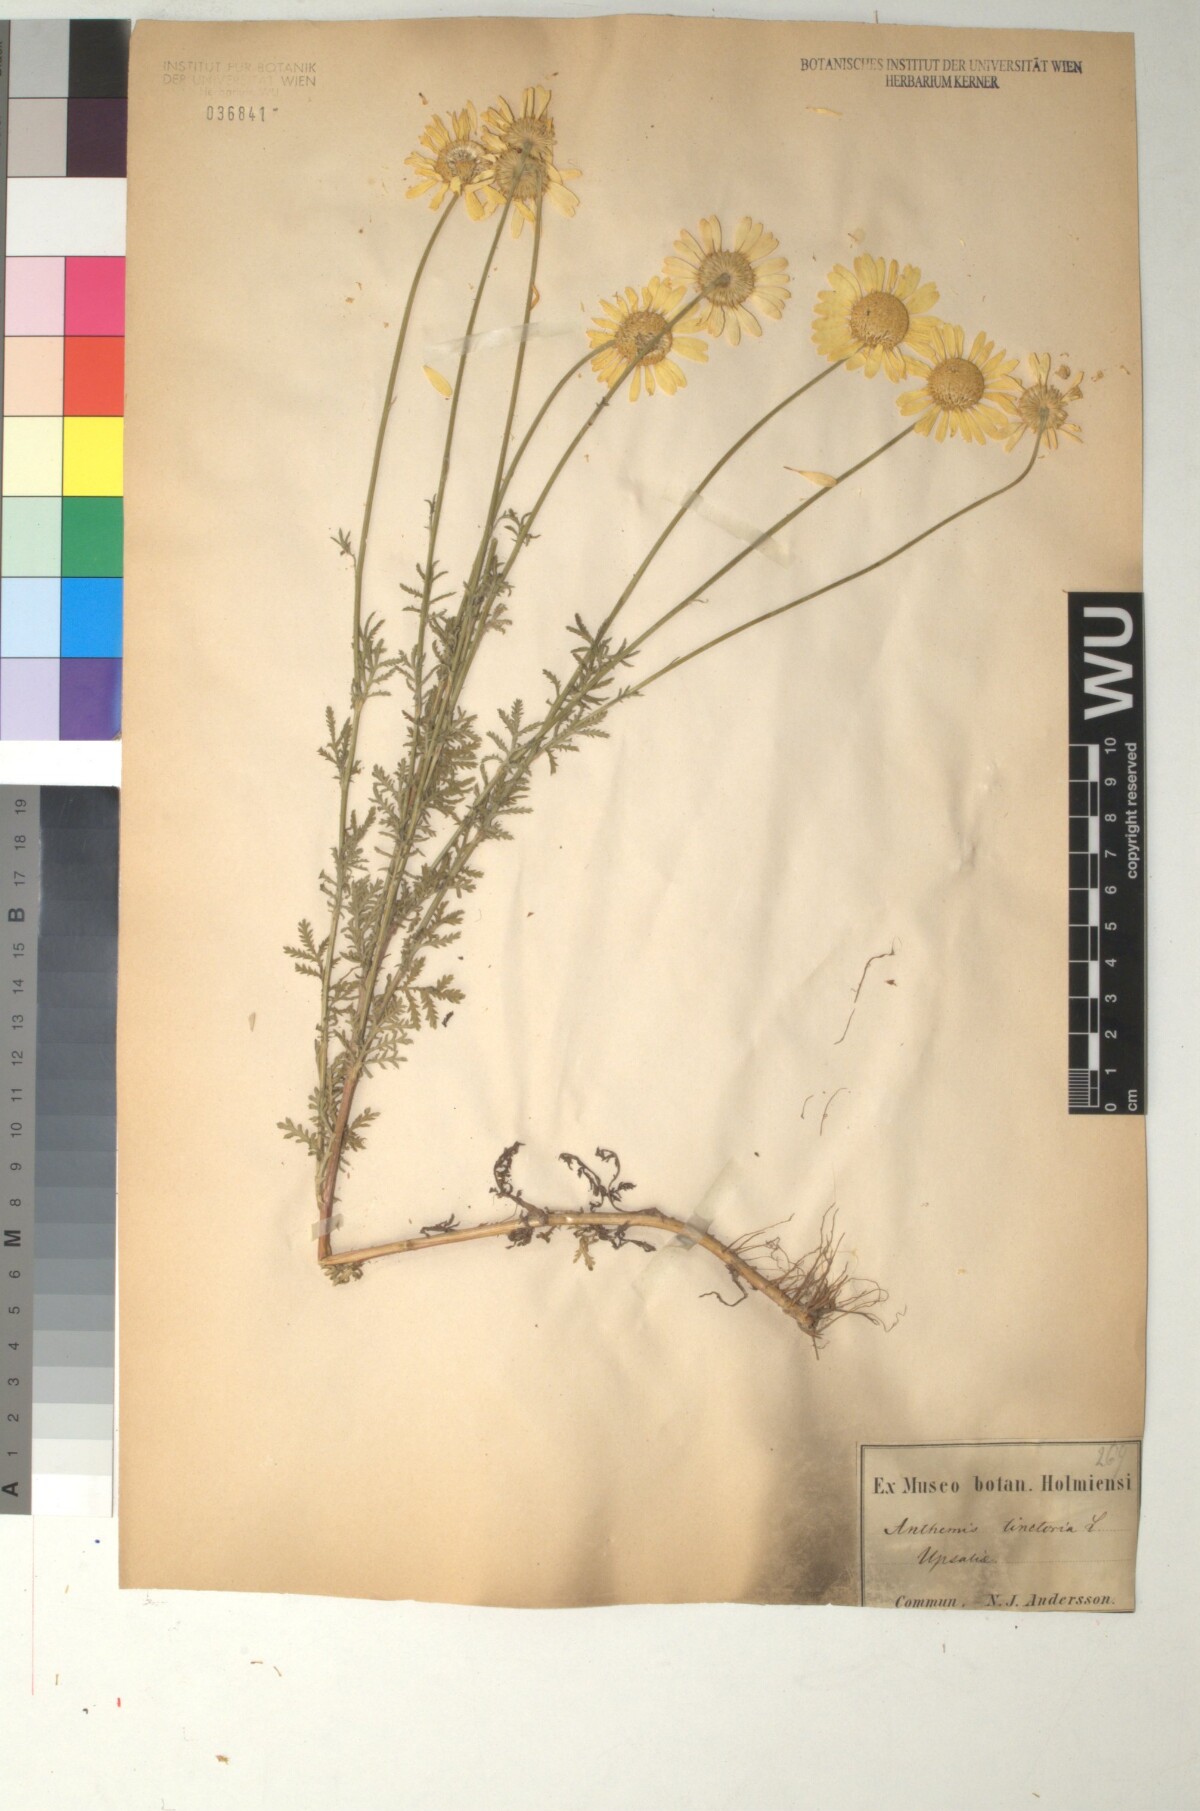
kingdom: Plantae
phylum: Tracheophyta
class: Magnoliopsida
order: Asterales
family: Asteraceae
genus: Cota
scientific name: Cota tinctoria
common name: Golden chamomile
